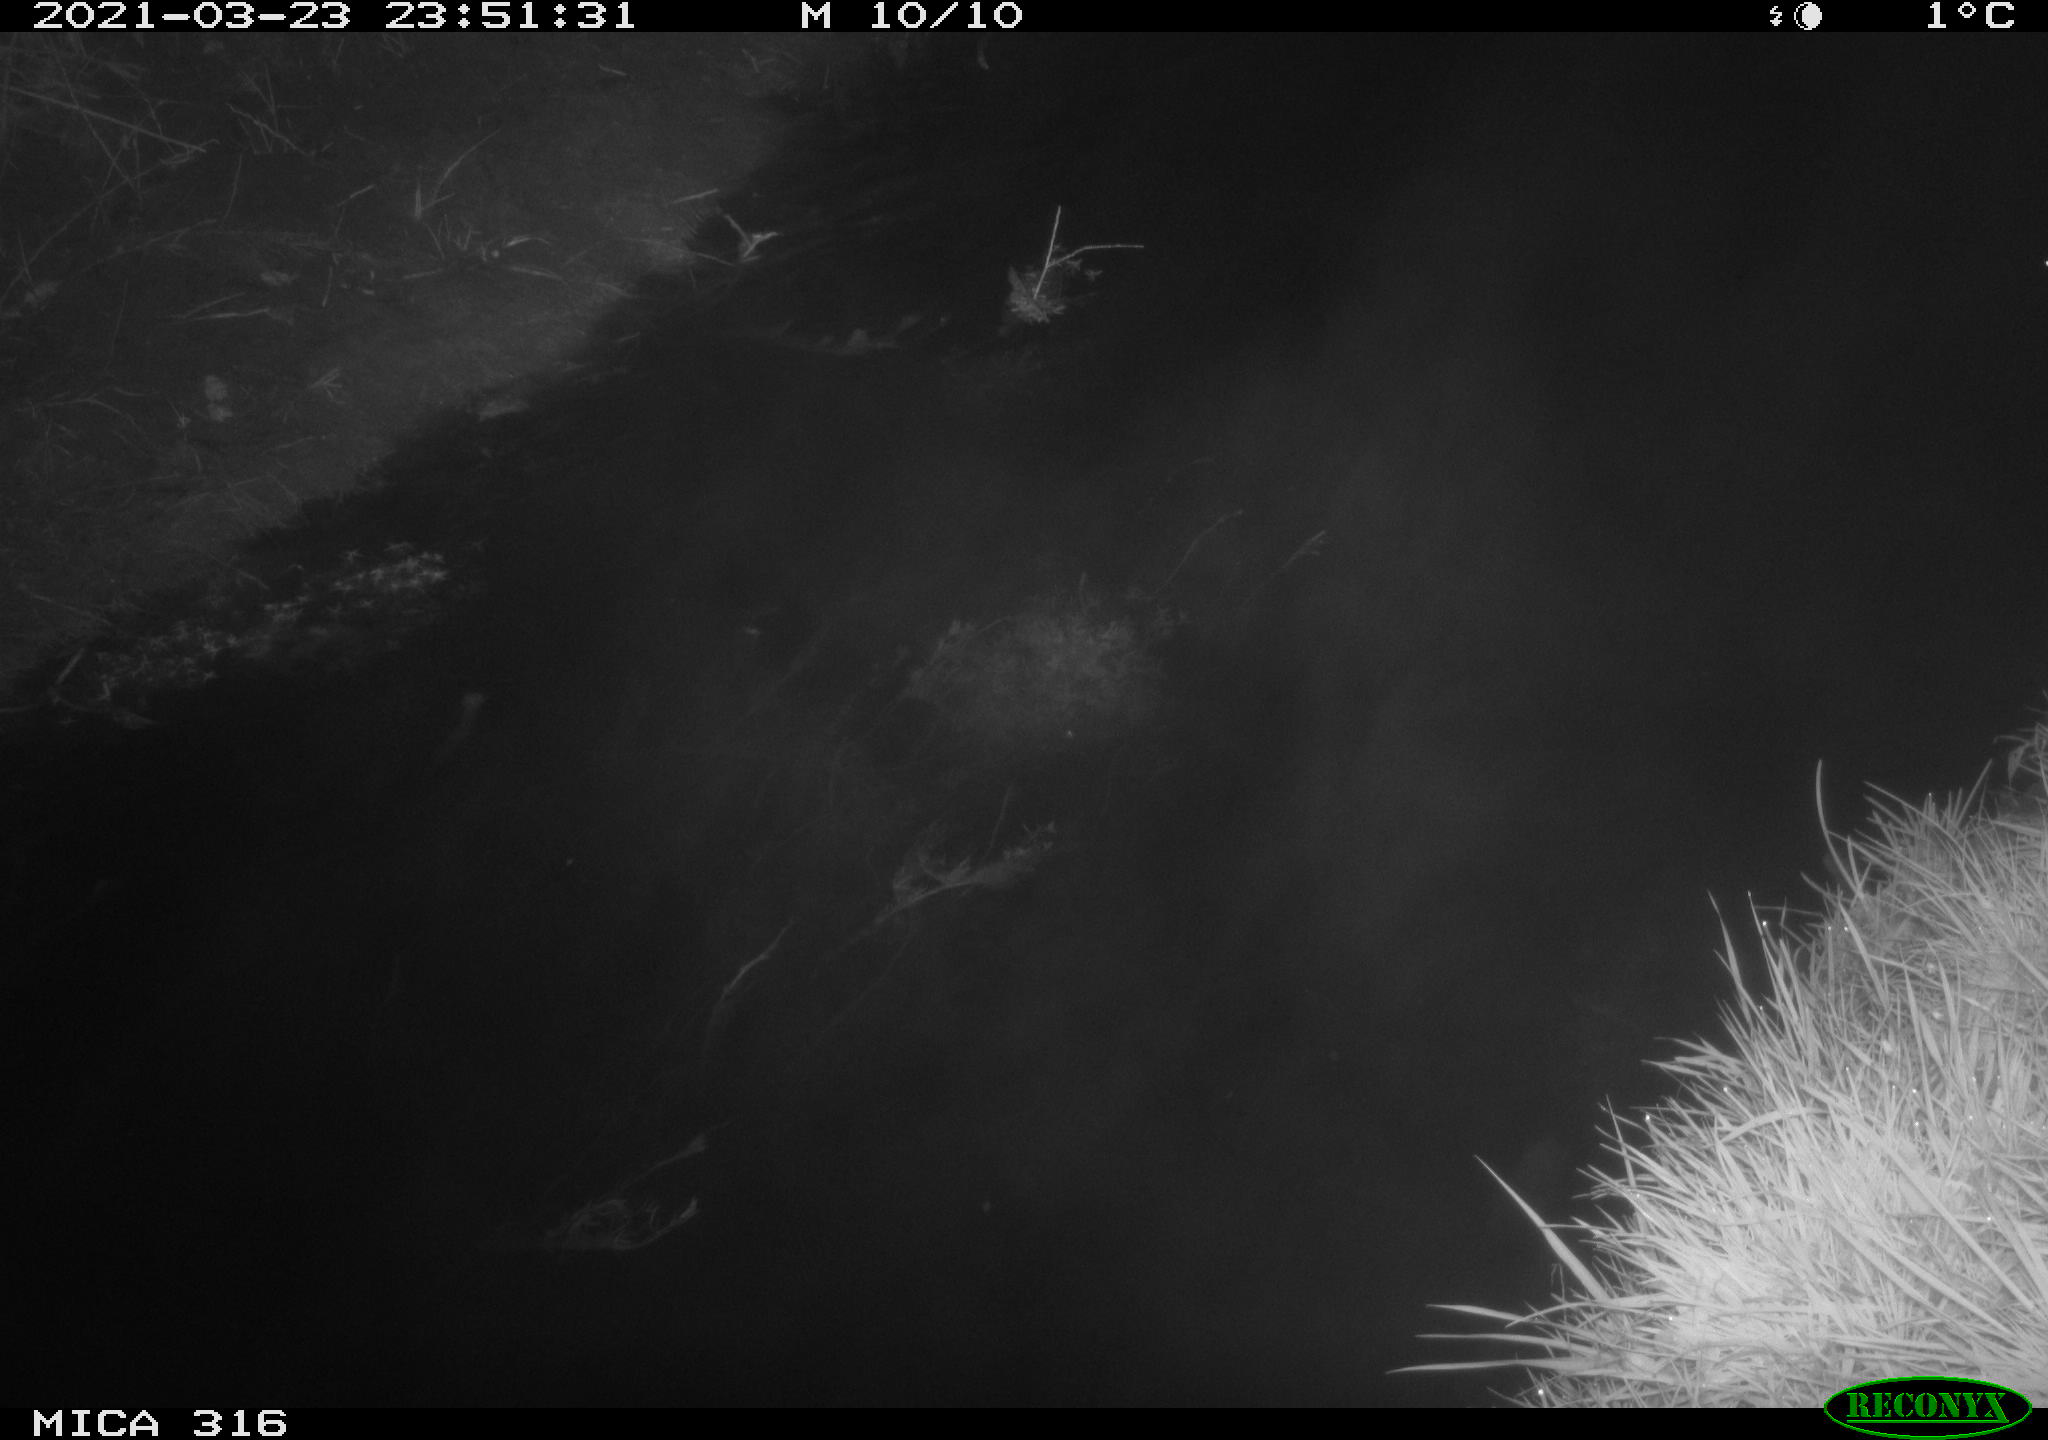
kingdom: Animalia
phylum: Chordata
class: Aves
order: Anseriformes
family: Anatidae
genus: Anas
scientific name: Anas platyrhynchos
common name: Mallard
